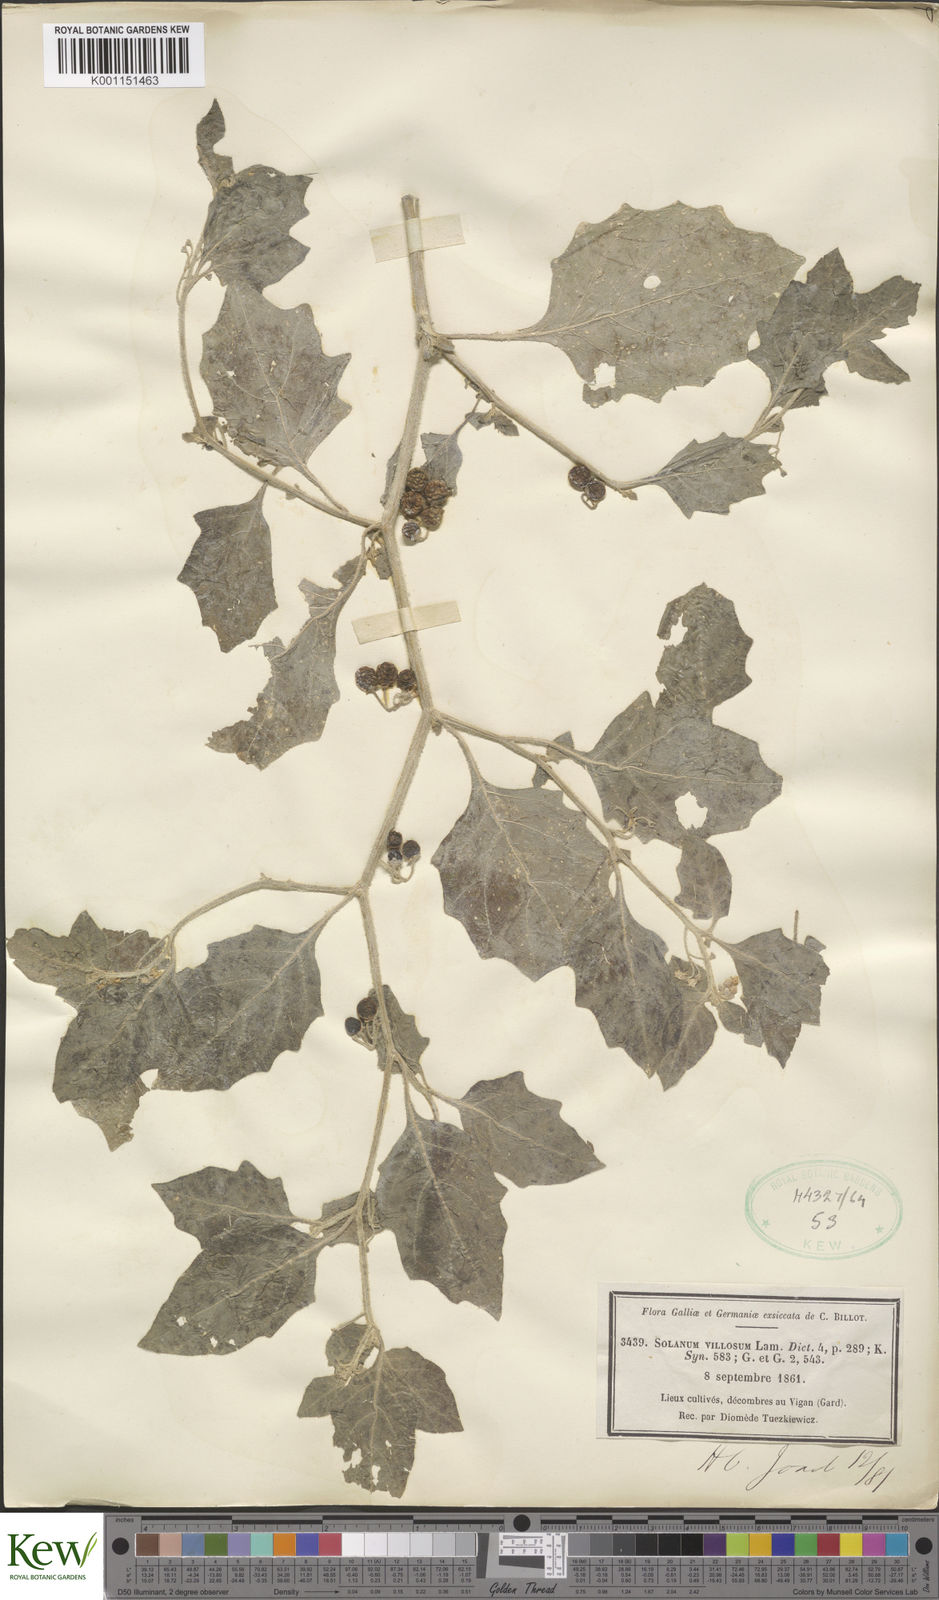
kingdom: Plantae
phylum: Tracheophyta
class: Magnoliopsida
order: Solanales
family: Solanaceae
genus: Solanum
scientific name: Solanum villosum
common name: Red nightshade
